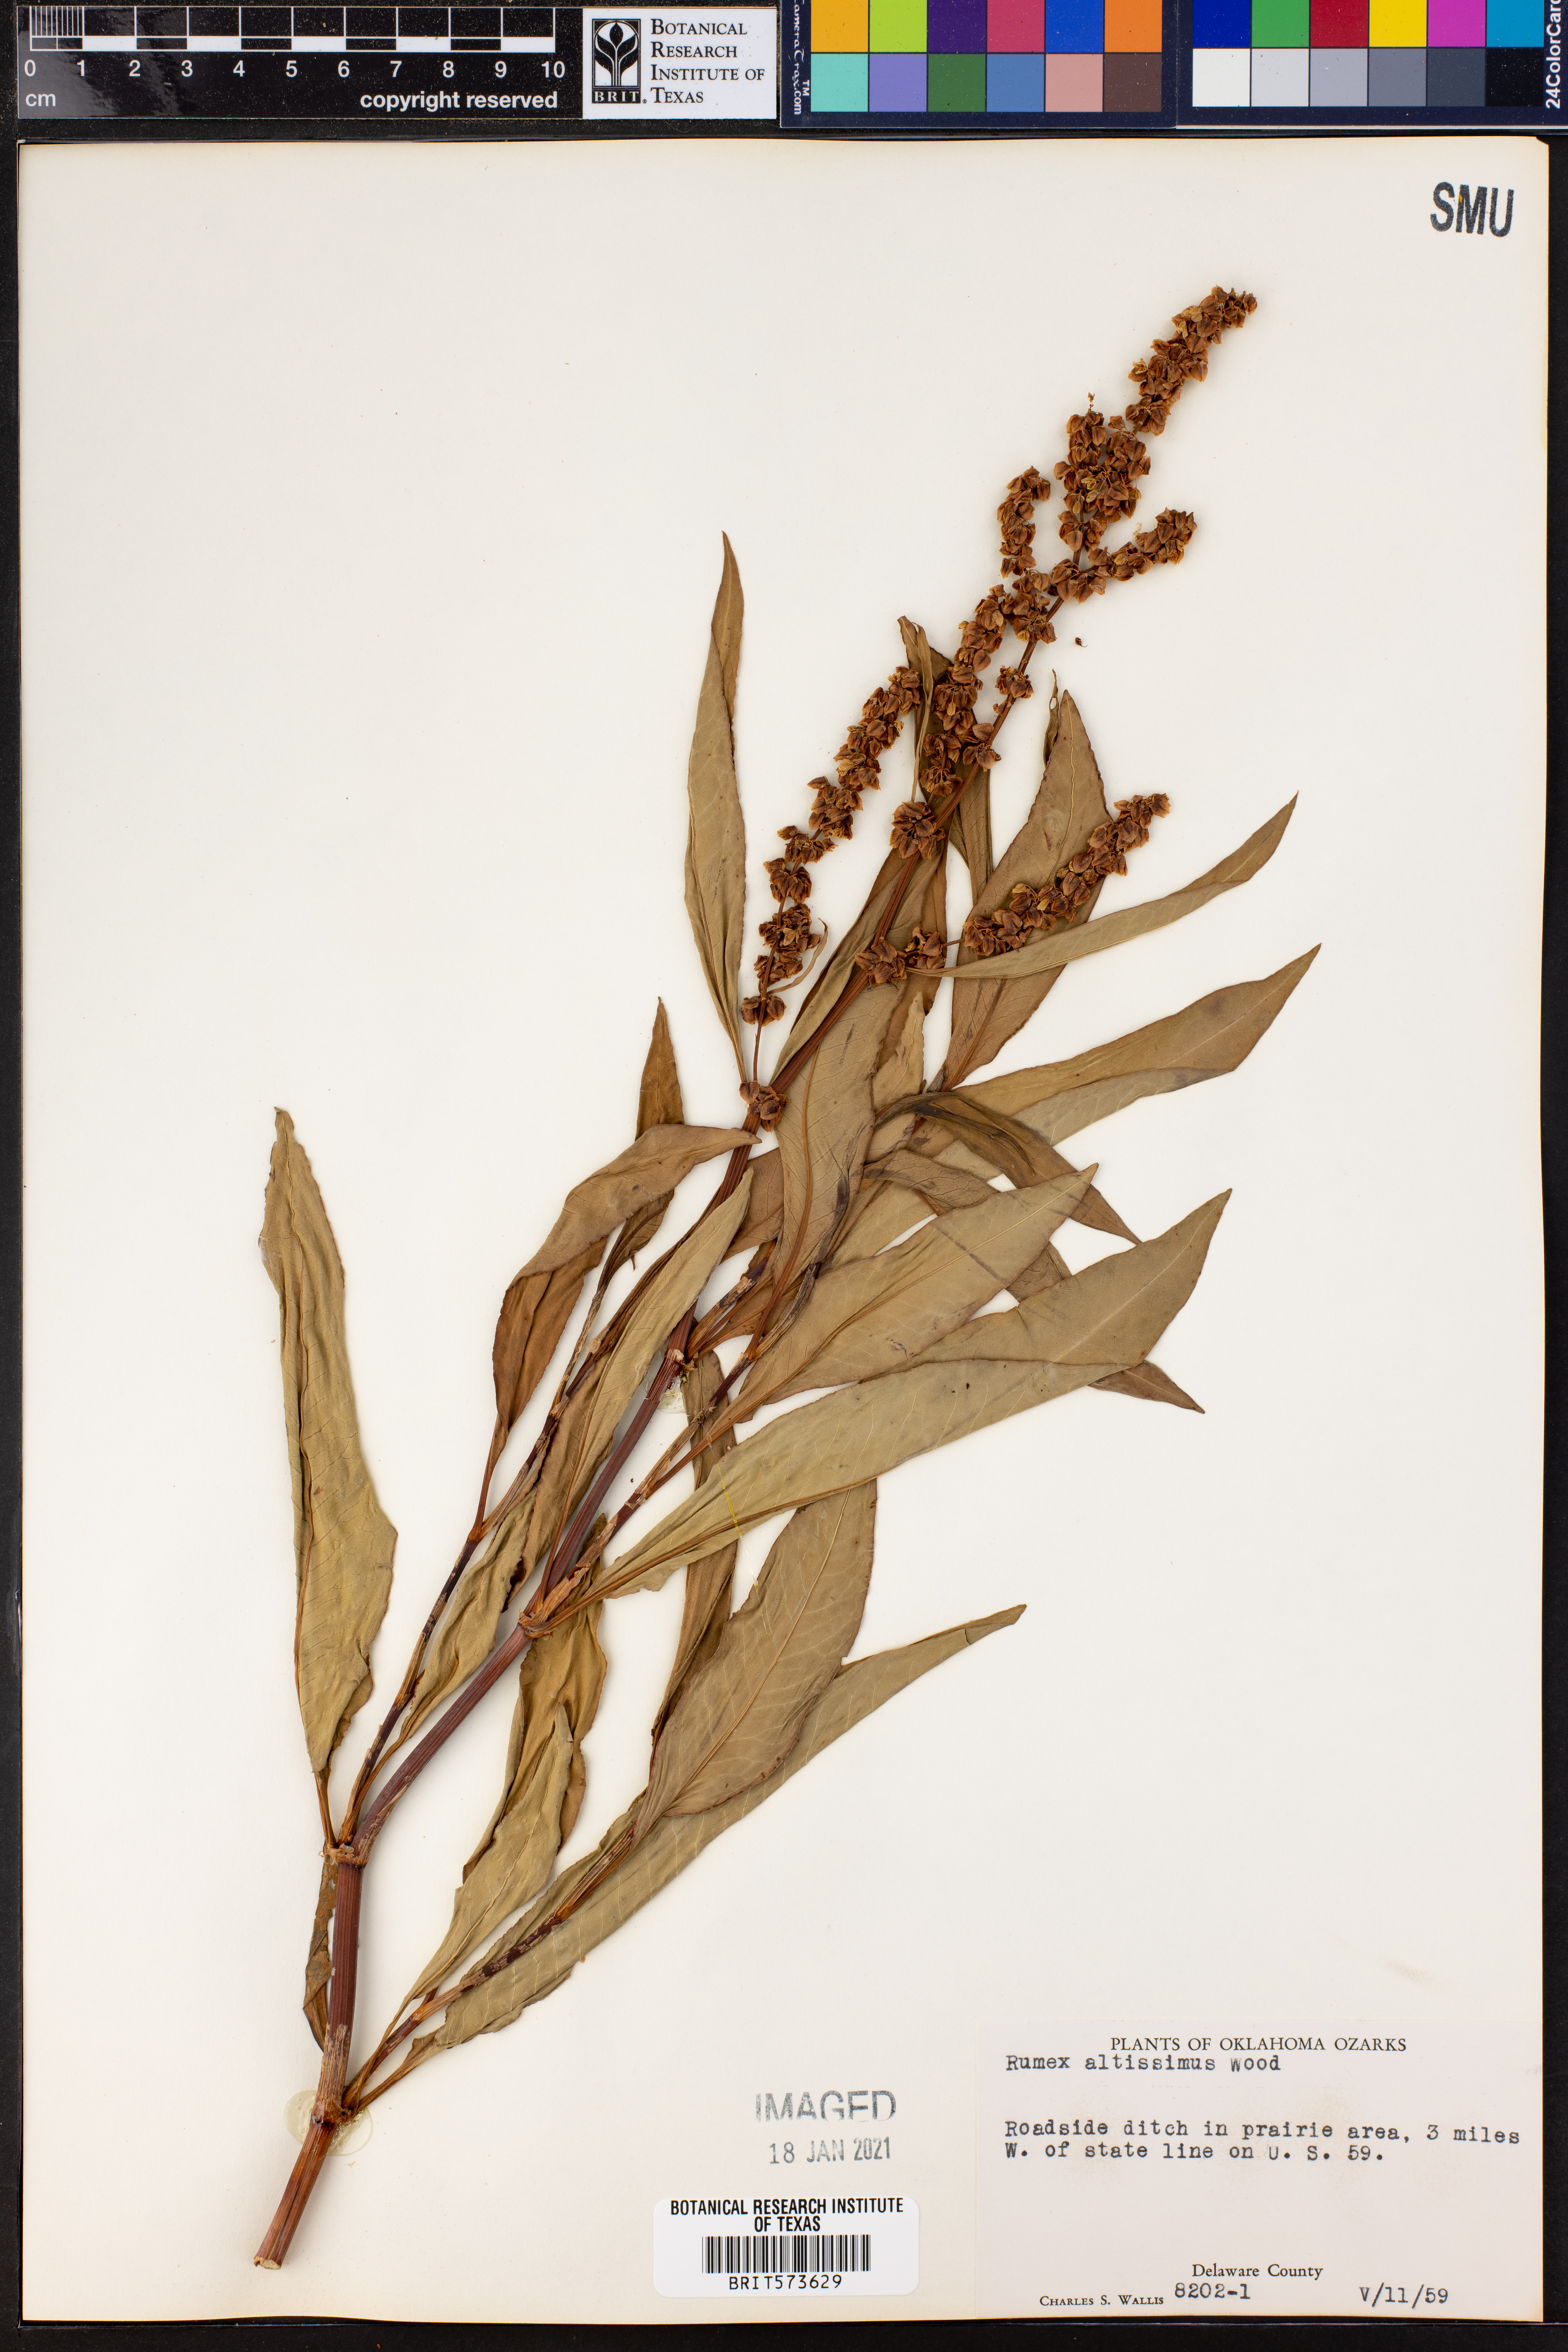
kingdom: Plantae
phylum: Tracheophyta
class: Magnoliopsida
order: Caryophyllales
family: Polygonaceae
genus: Rumex
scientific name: Rumex altissimus
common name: Smooth dock
